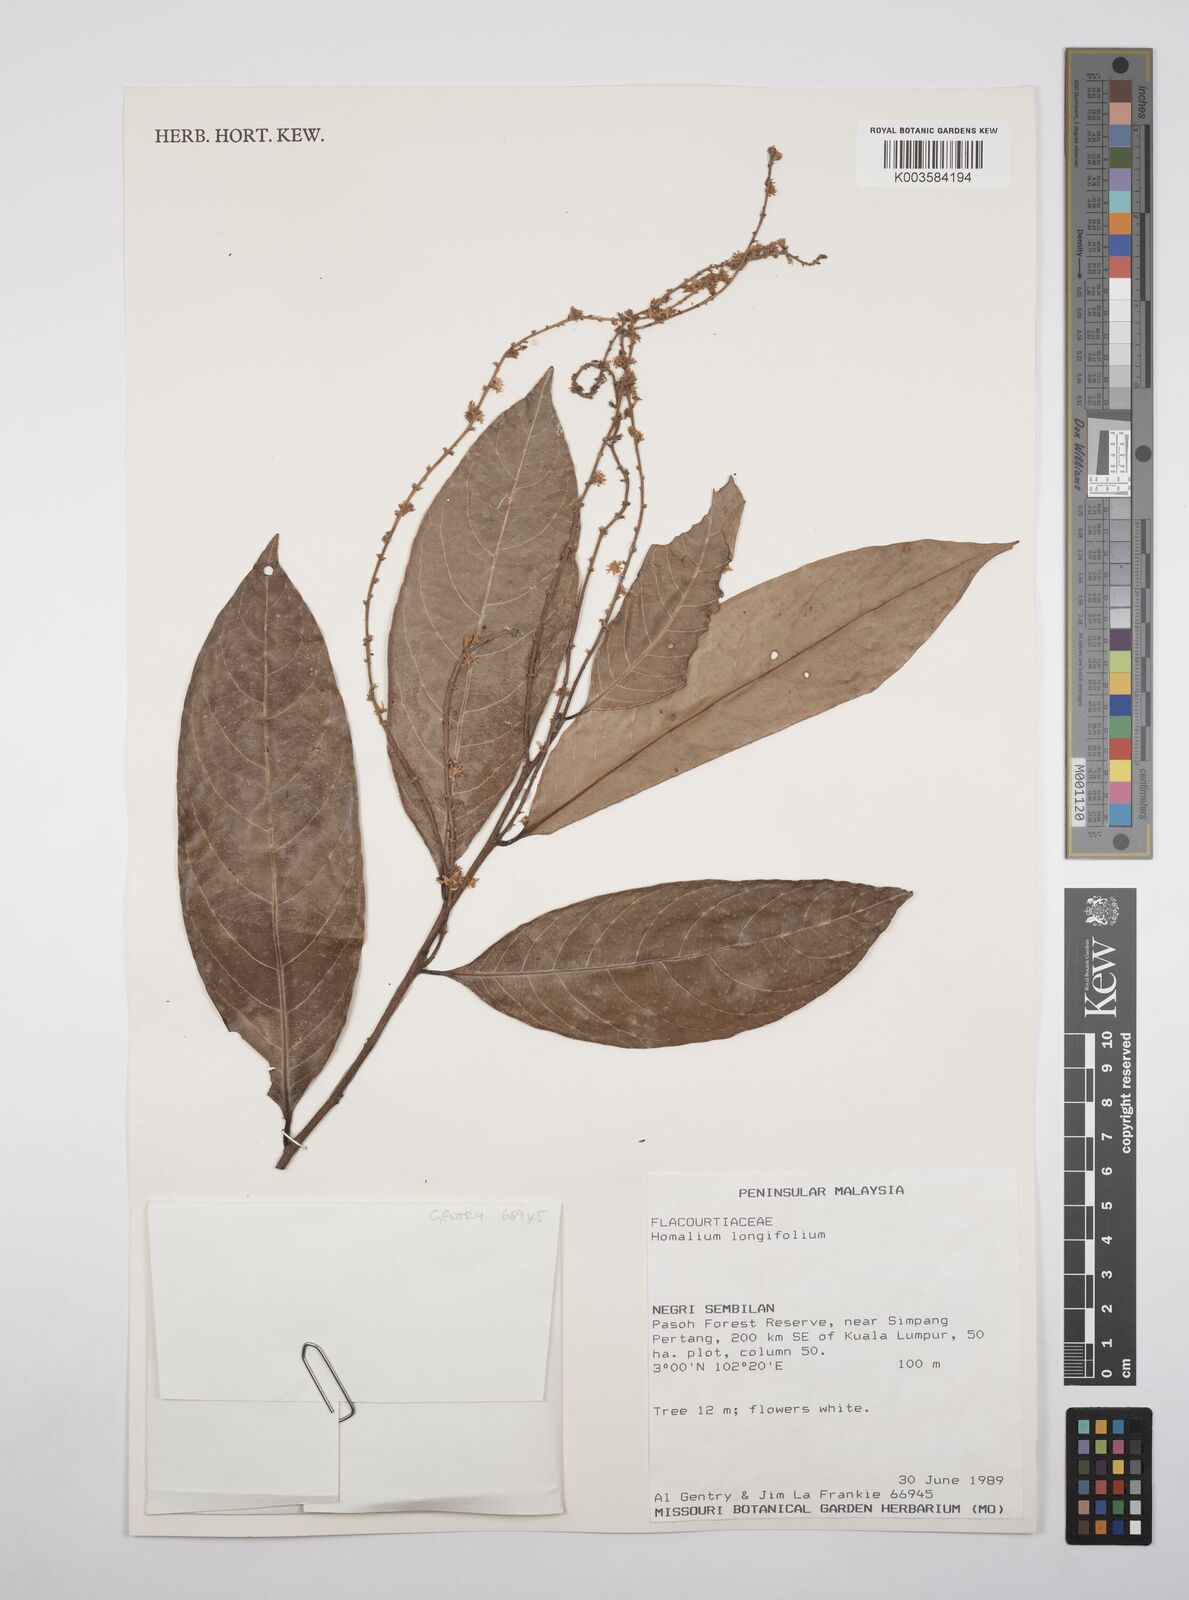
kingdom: Plantae
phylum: Tracheophyta
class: Magnoliopsida
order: Malpighiales
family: Salicaceae
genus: Homalium
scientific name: Homalium longifolium
